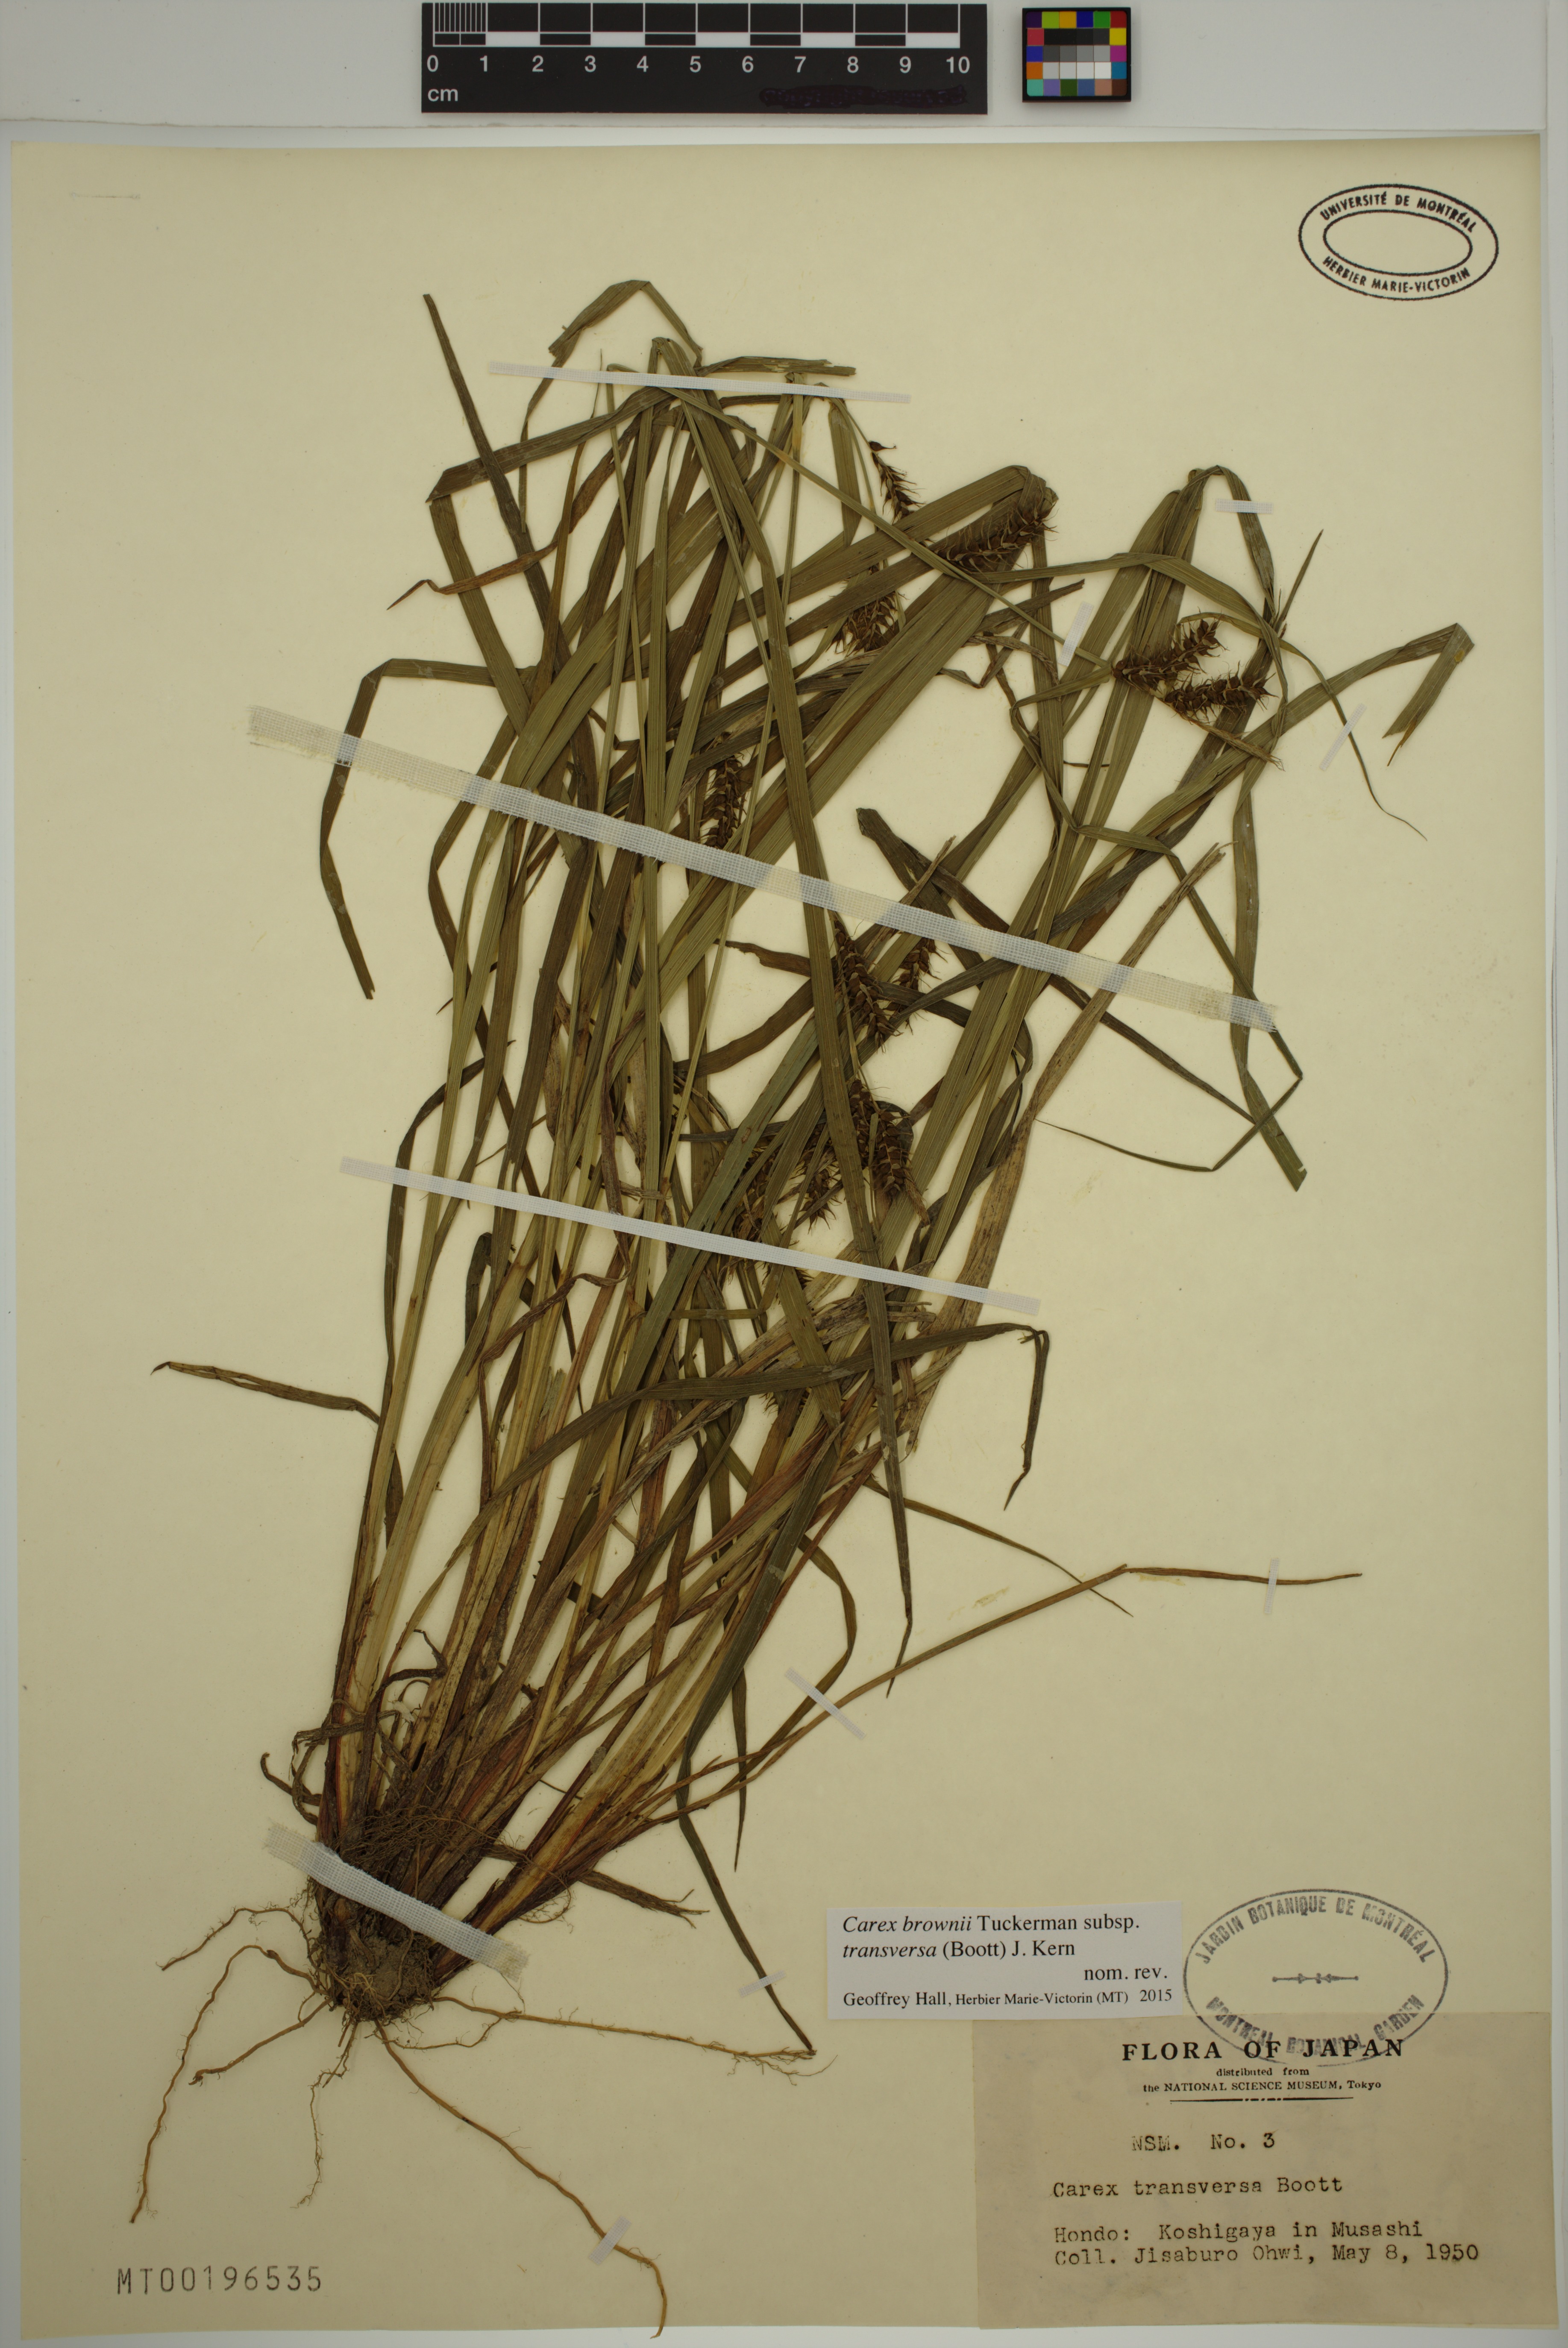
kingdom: Plantae
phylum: Tracheophyta
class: Liliopsida
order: Poales
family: Cyperaceae
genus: Carex
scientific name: Carex brownii
